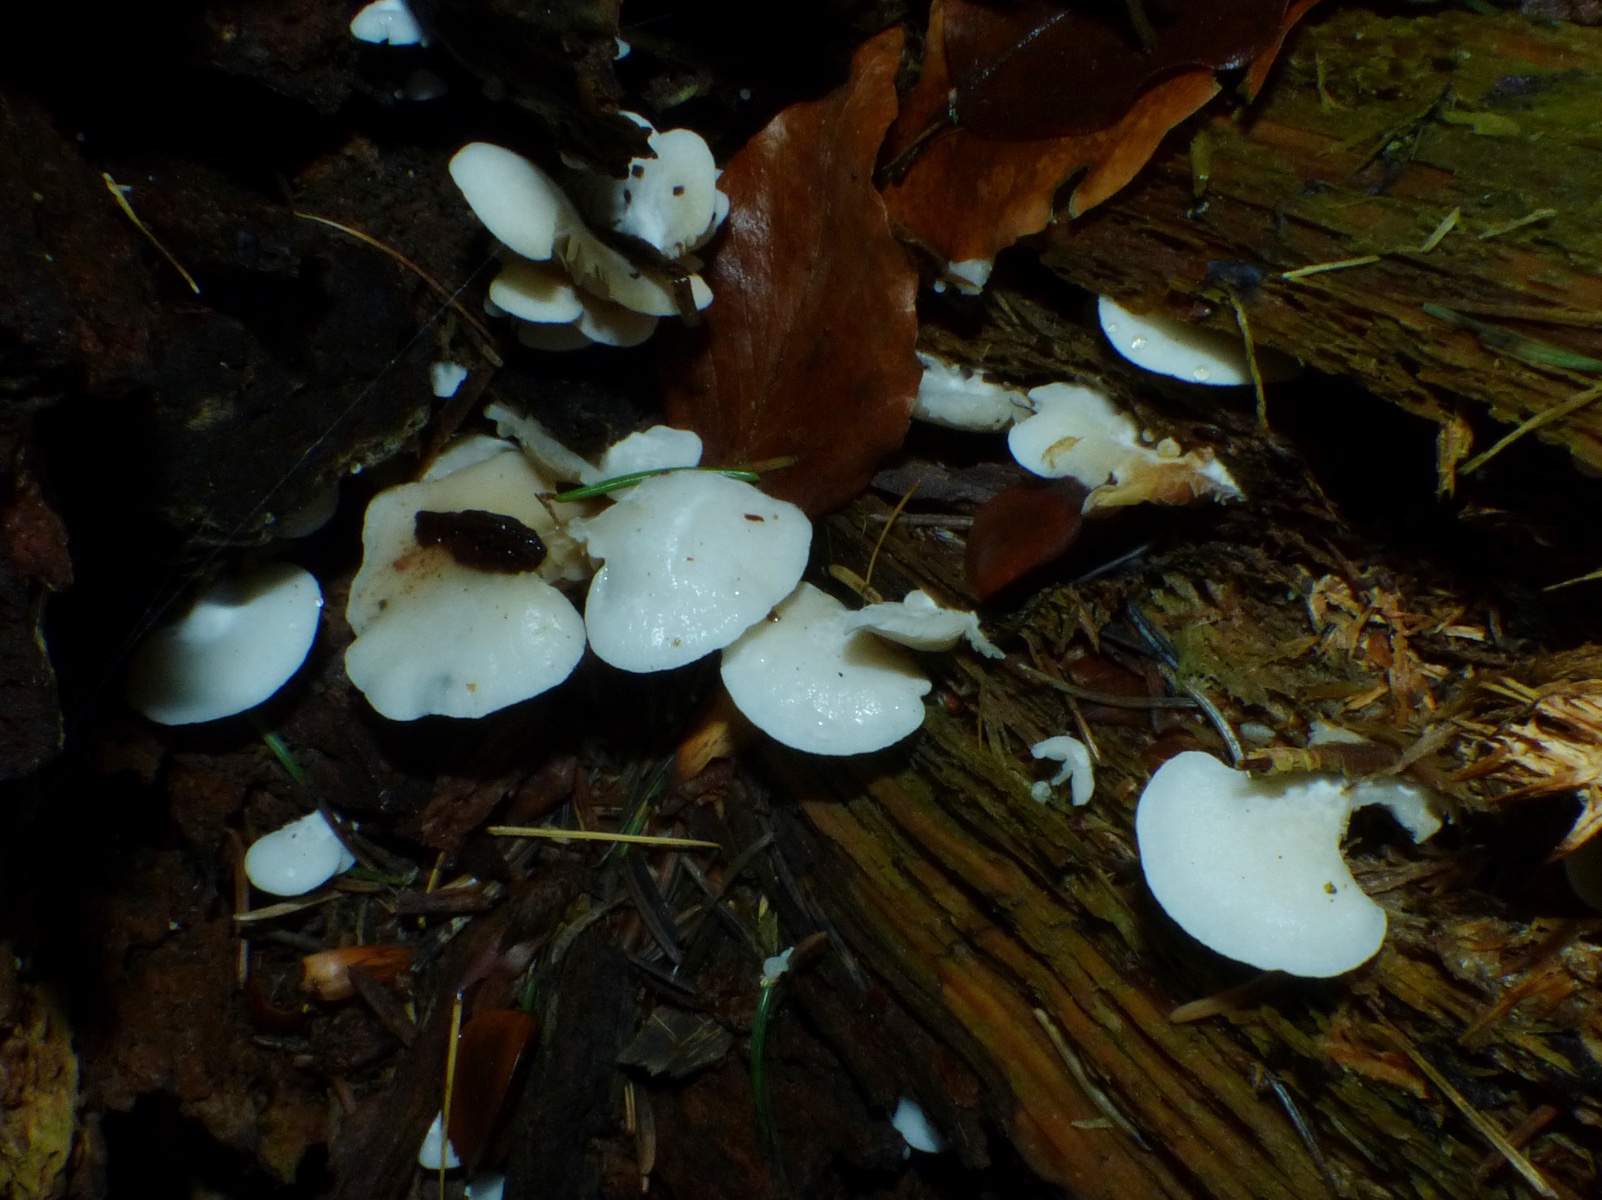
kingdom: Fungi
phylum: Basidiomycota
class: Agaricomycetes
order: Agaricales
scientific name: Agaricales
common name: champignonordenen
